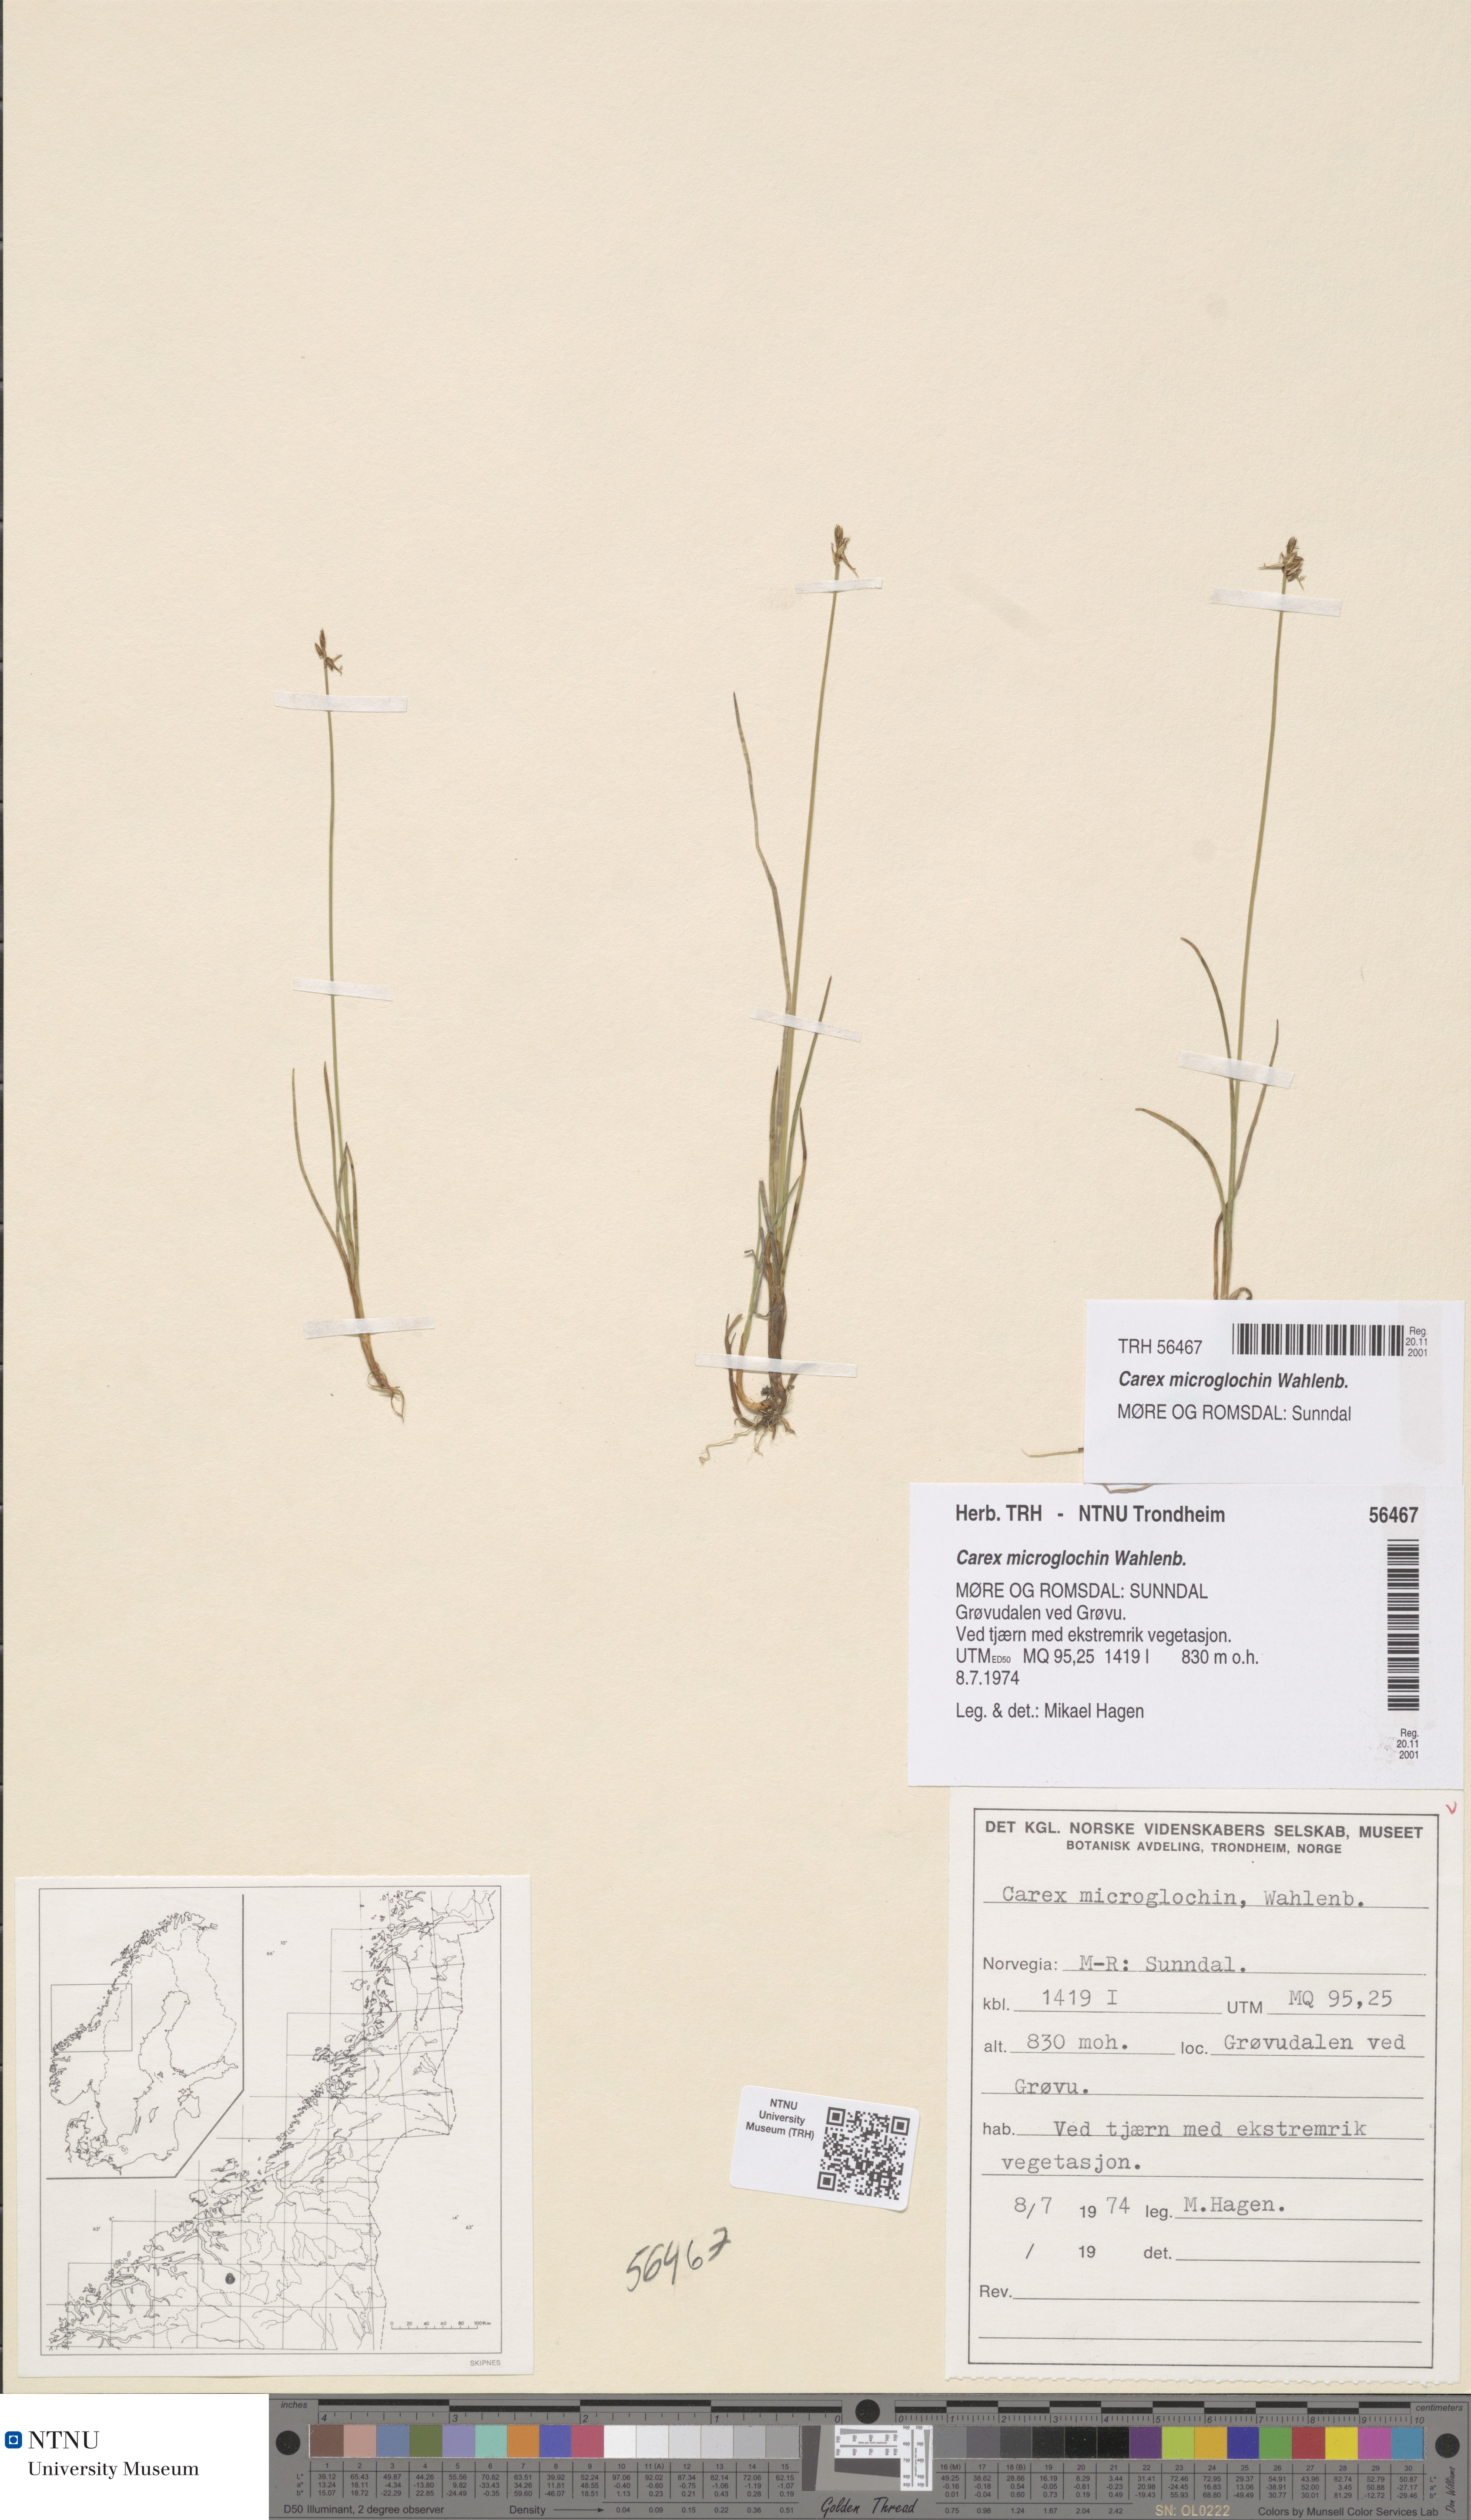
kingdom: Plantae
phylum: Tracheophyta
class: Liliopsida
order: Poales
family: Cyperaceae
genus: Carex
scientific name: Carex microglochin
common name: Bristle sedge
